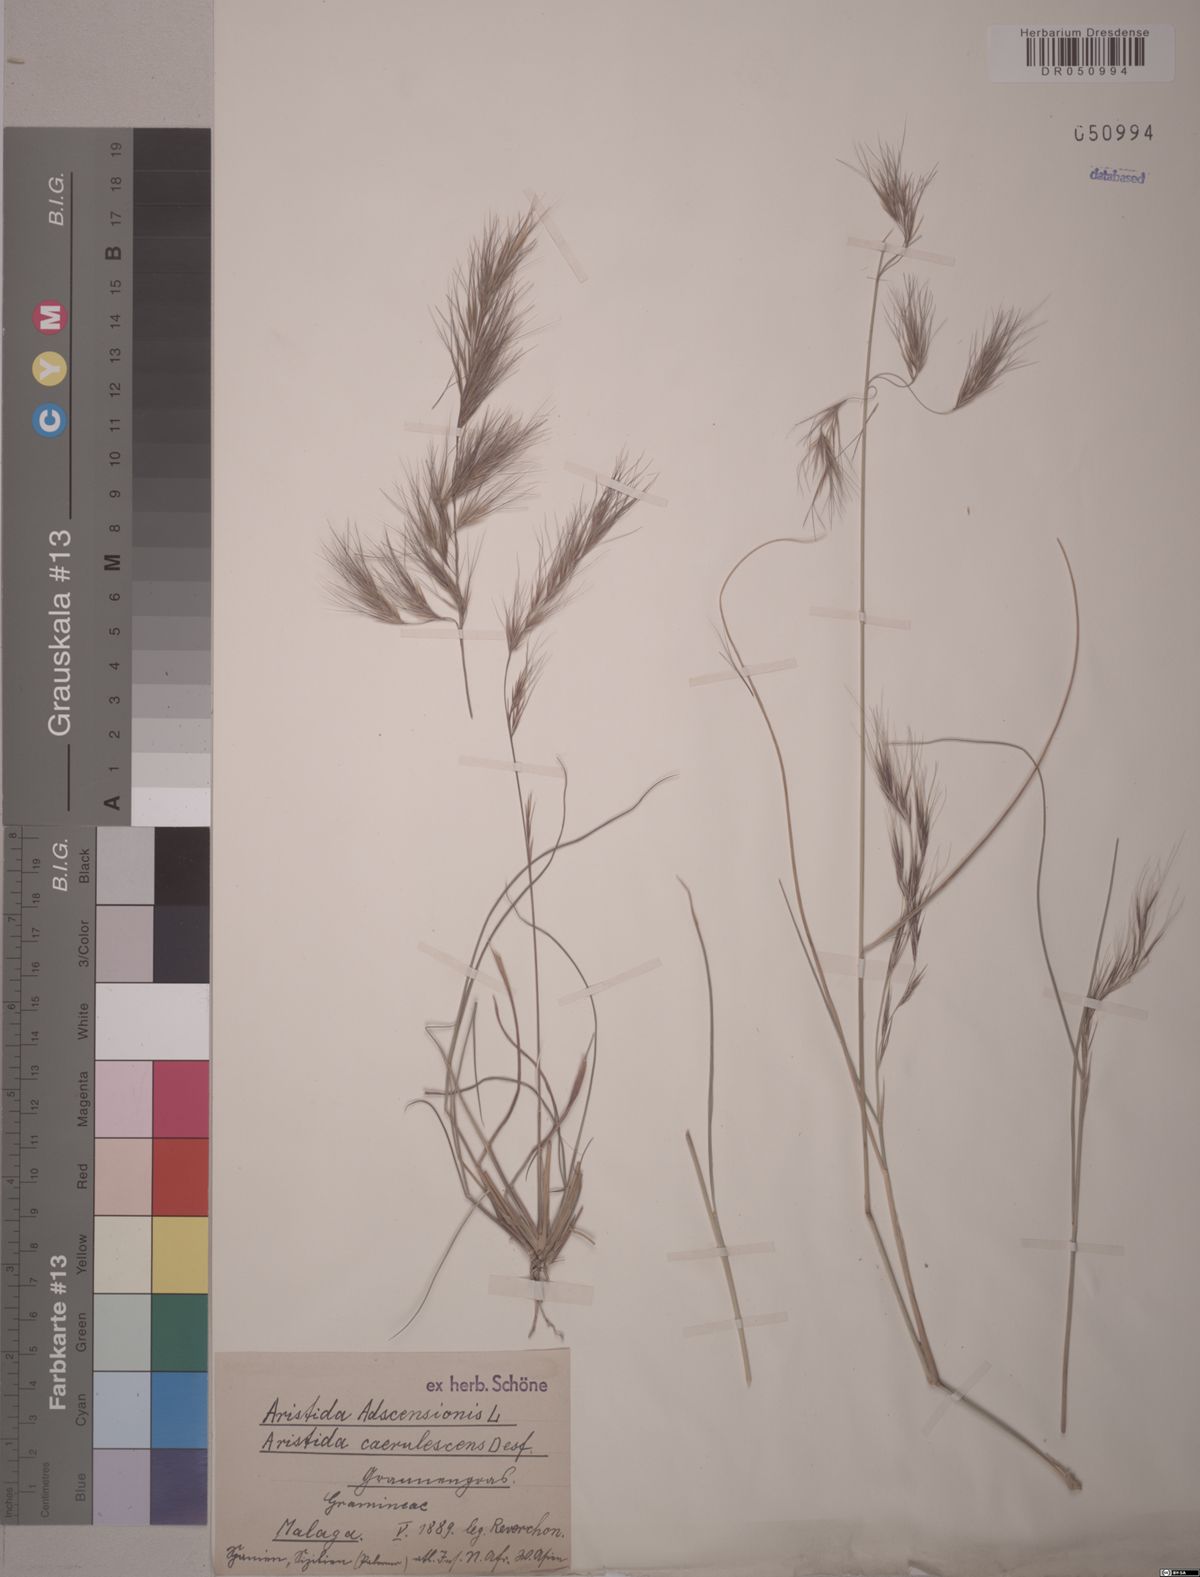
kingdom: Plantae
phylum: Tracheophyta
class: Liliopsida
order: Poales
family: Poaceae
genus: Aristida
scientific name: Aristida adscensionis
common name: Sixweeks threeawn
